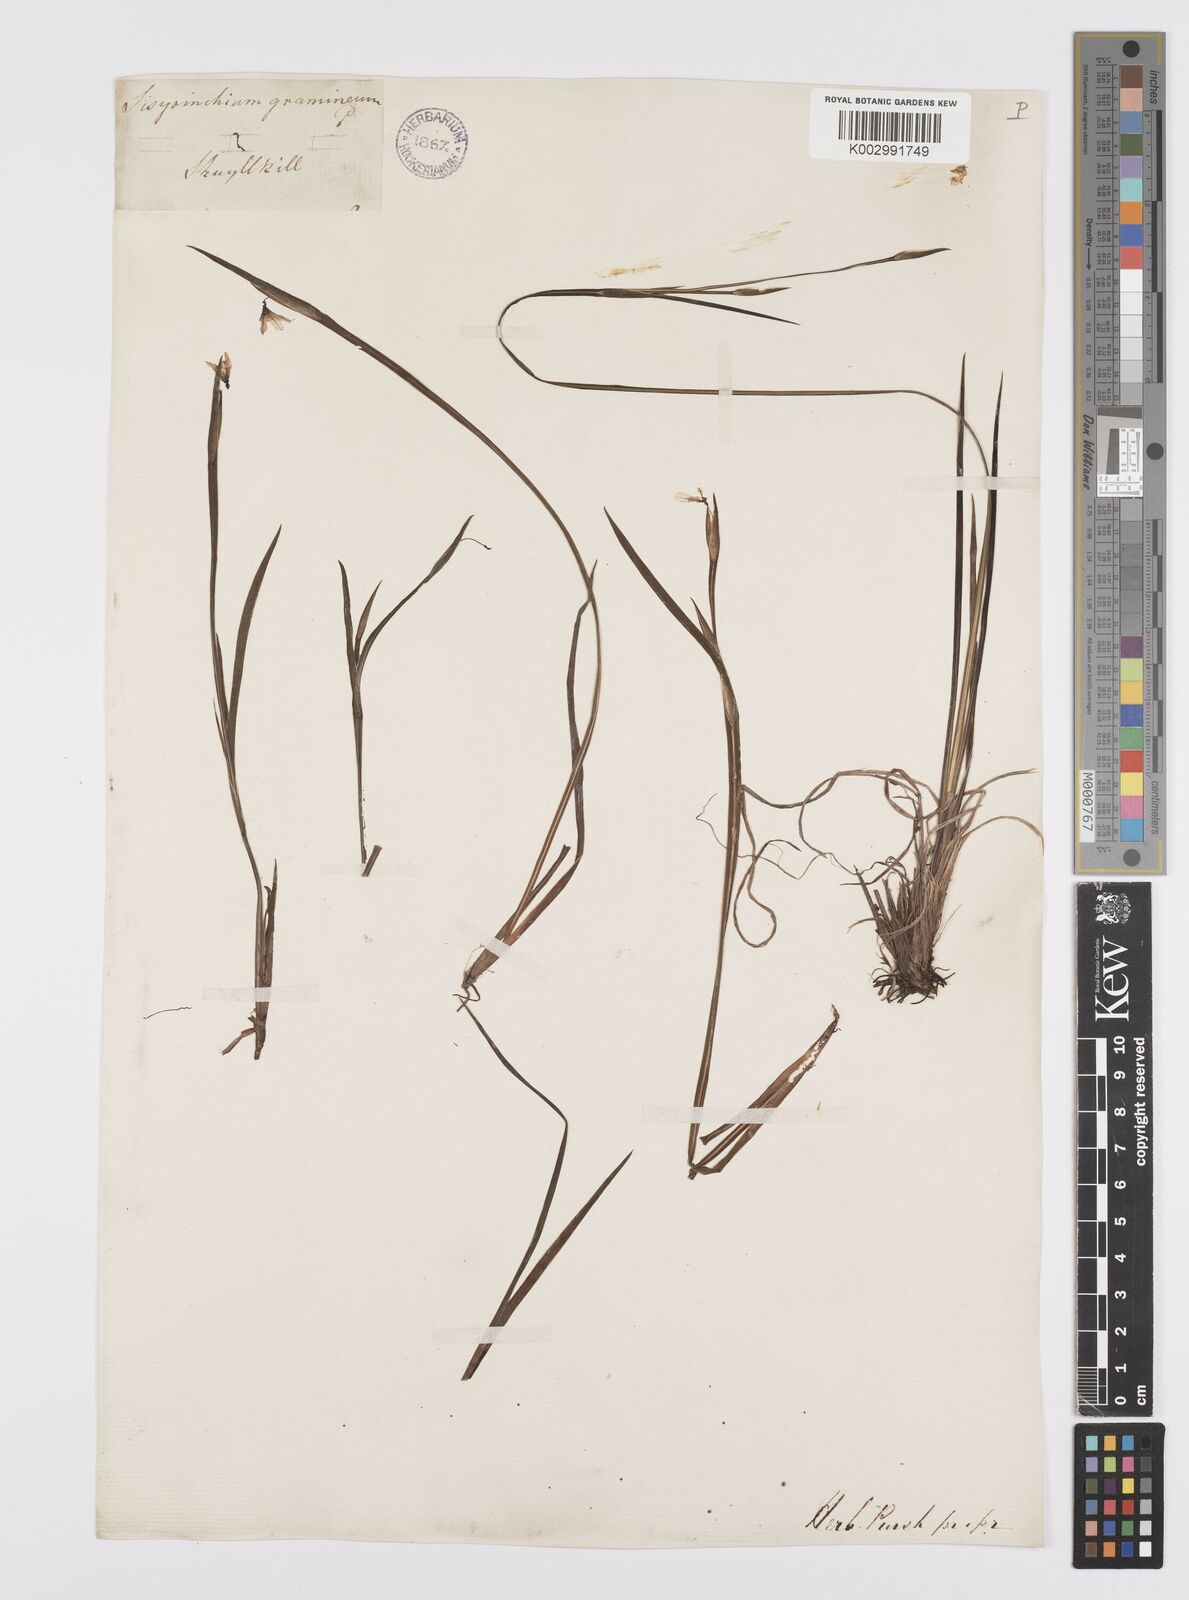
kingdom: Plantae
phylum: Tracheophyta
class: Liliopsida
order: Asparagales
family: Iridaceae
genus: Sisyrinchium
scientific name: Sisyrinchium bermudiana
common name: Blue-eyed-grass
